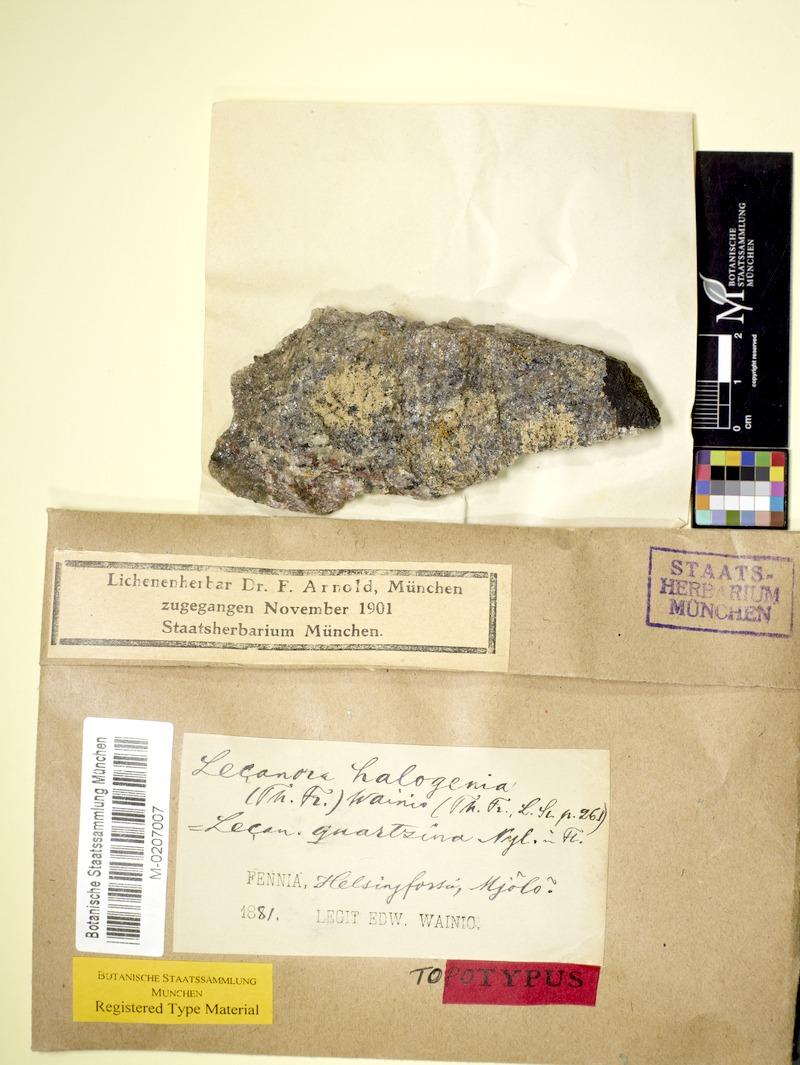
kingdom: Fungi
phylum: Ascomycota
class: Lecanoromycetes
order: Lecanorales
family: Lecanoraceae
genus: Polyozosia
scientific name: Polyozosia actophila
